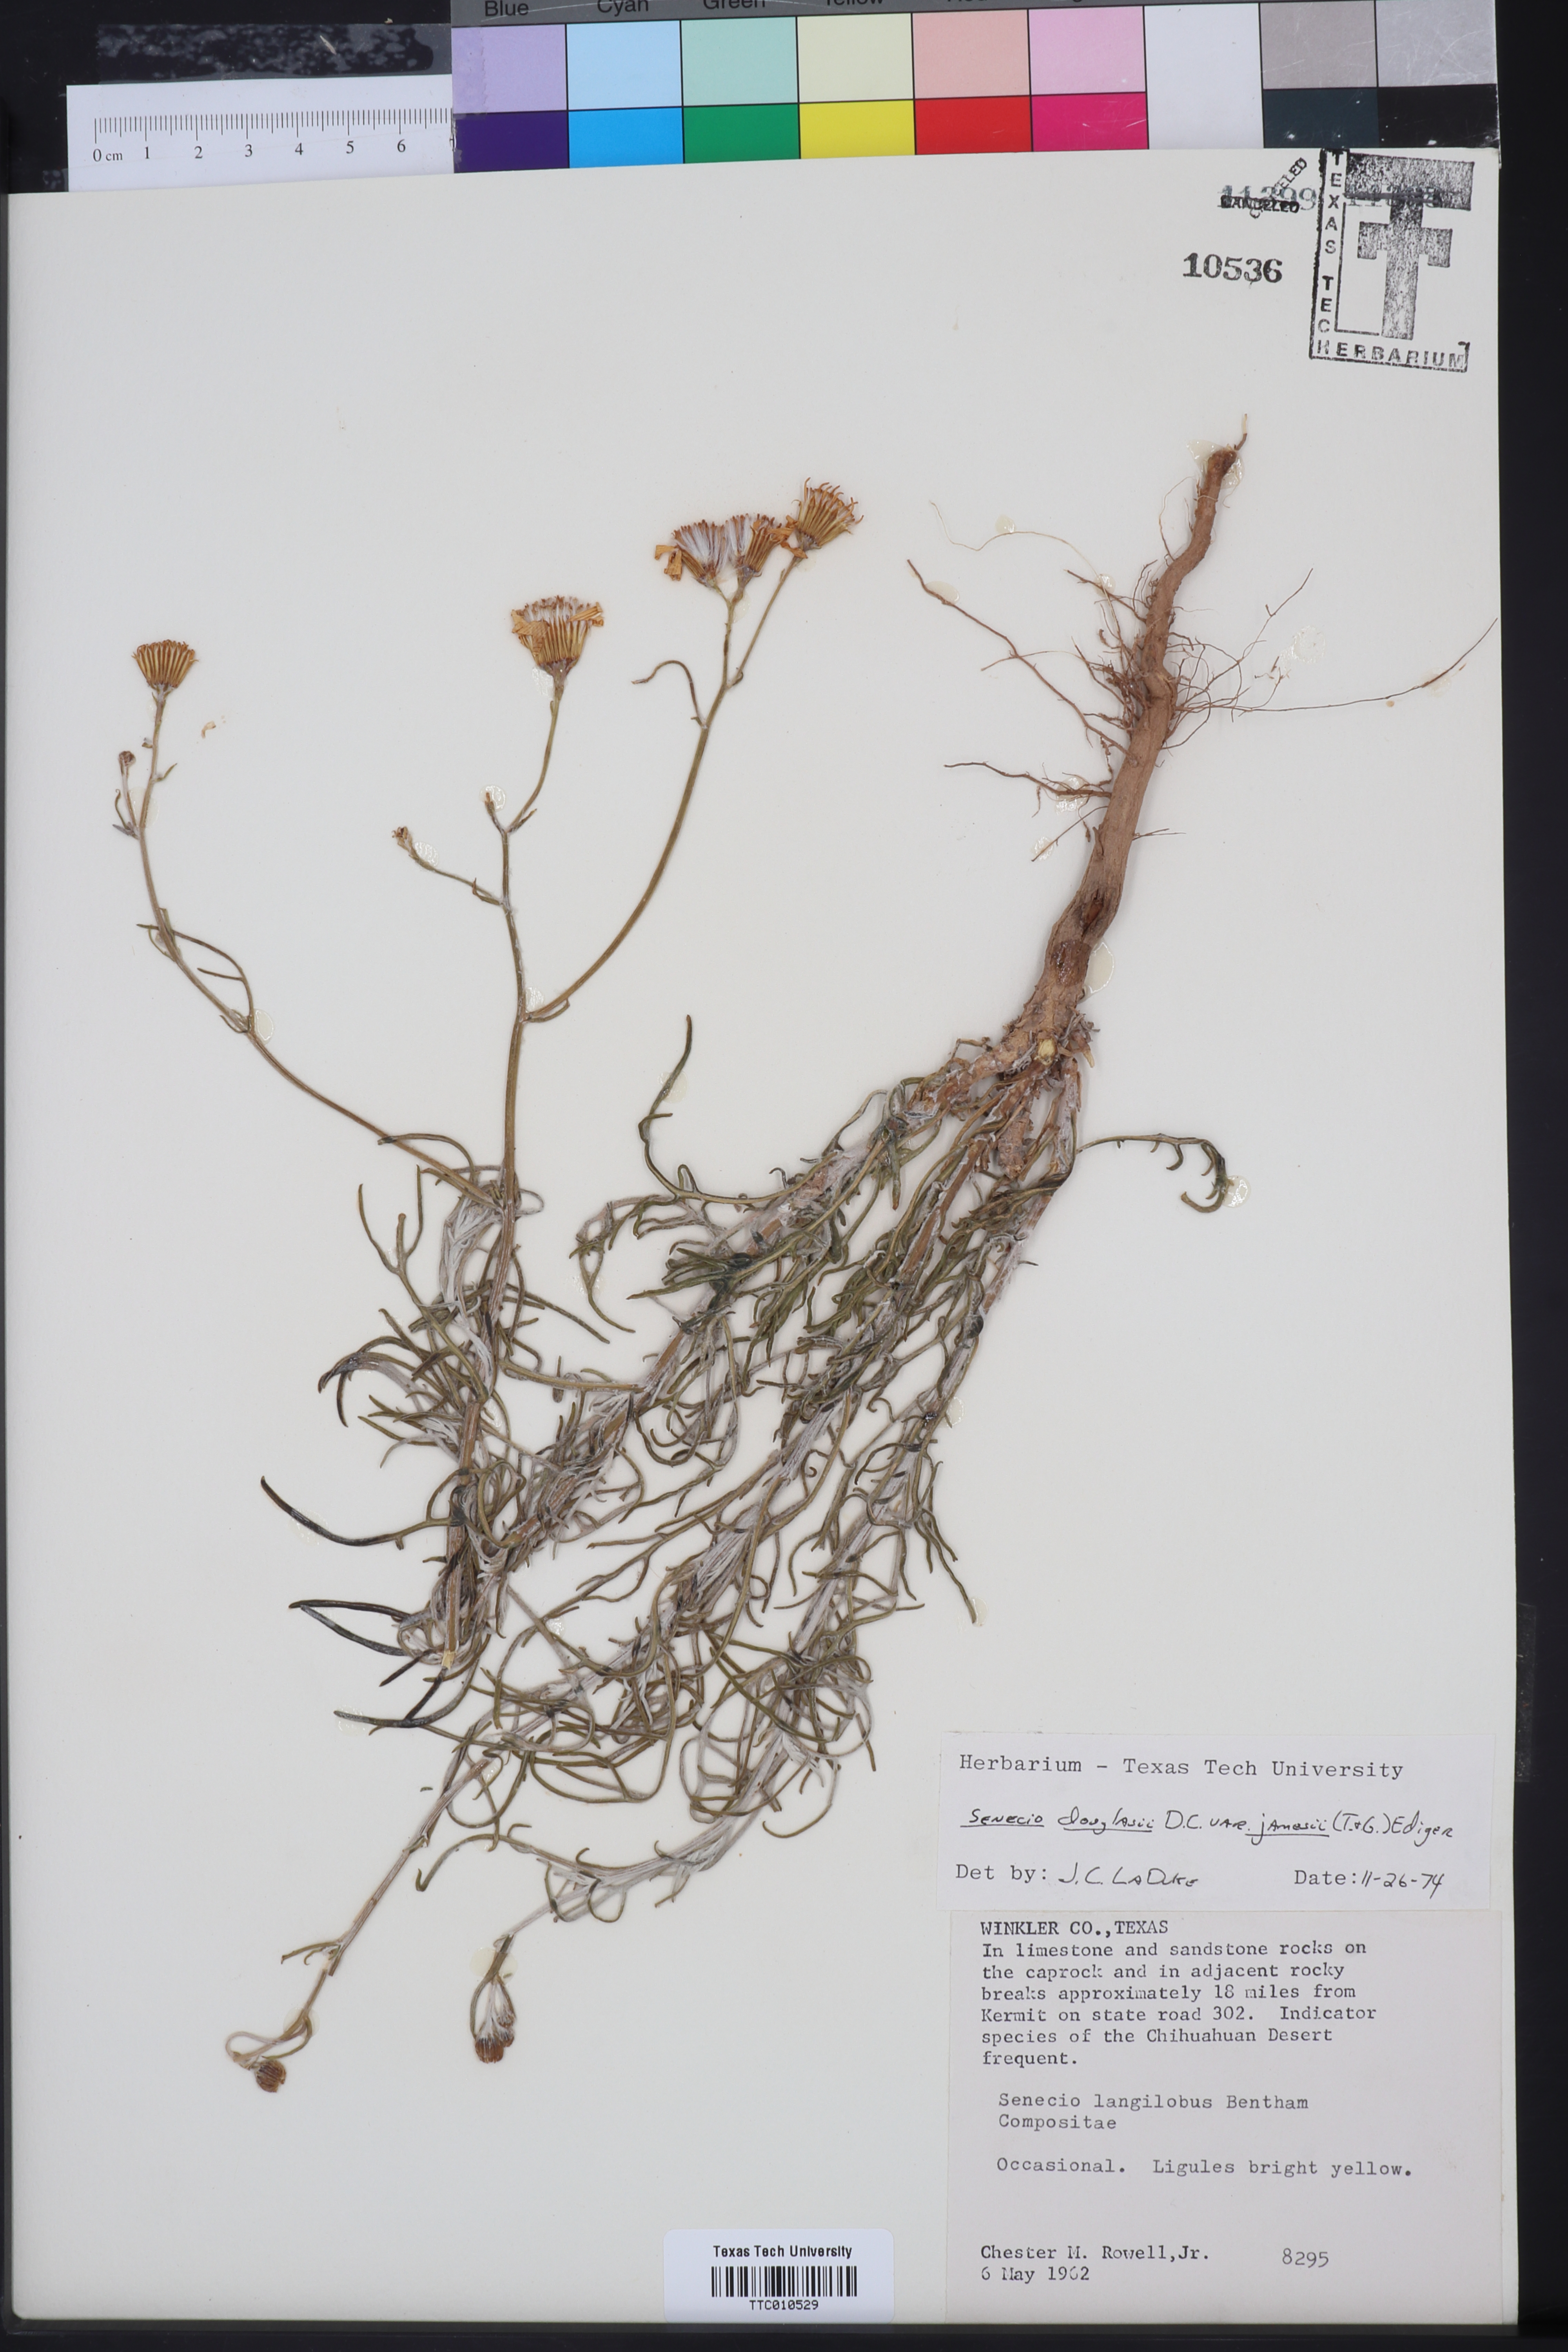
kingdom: Plantae
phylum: Tracheophyta
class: Magnoliopsida
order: Asterales
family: Asteraceae
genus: Senecio
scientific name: Senecio flaccidus
